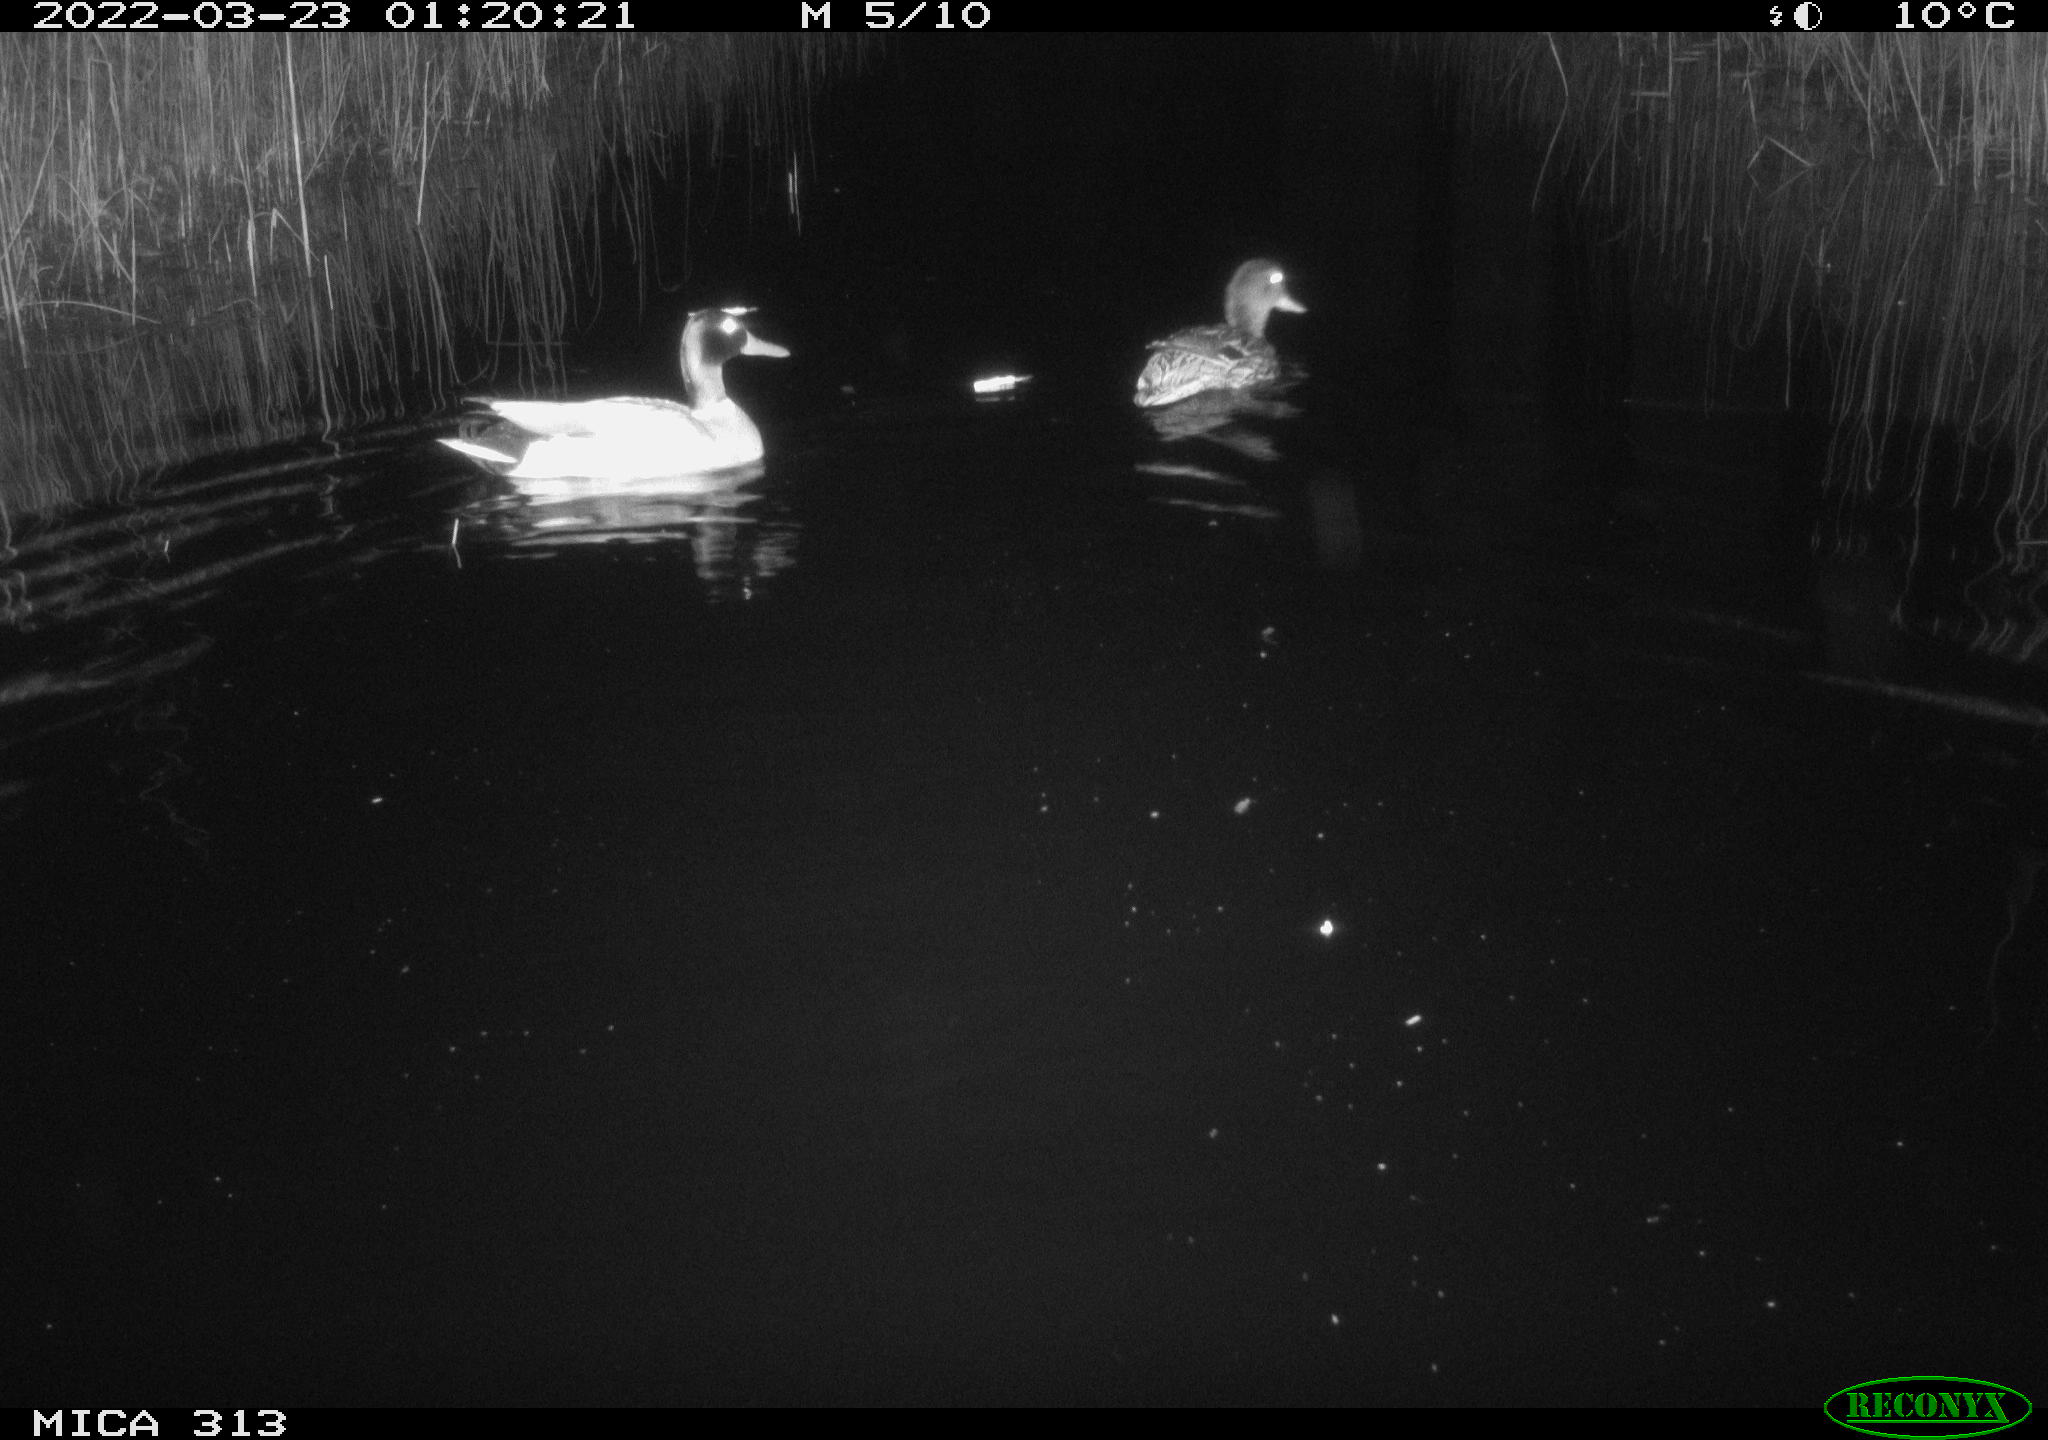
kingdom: Animalia
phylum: Chordata
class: Aves
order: Anseriformes
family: Anatidae
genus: Anas
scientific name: Anas platyrhynchos
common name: Mallard
